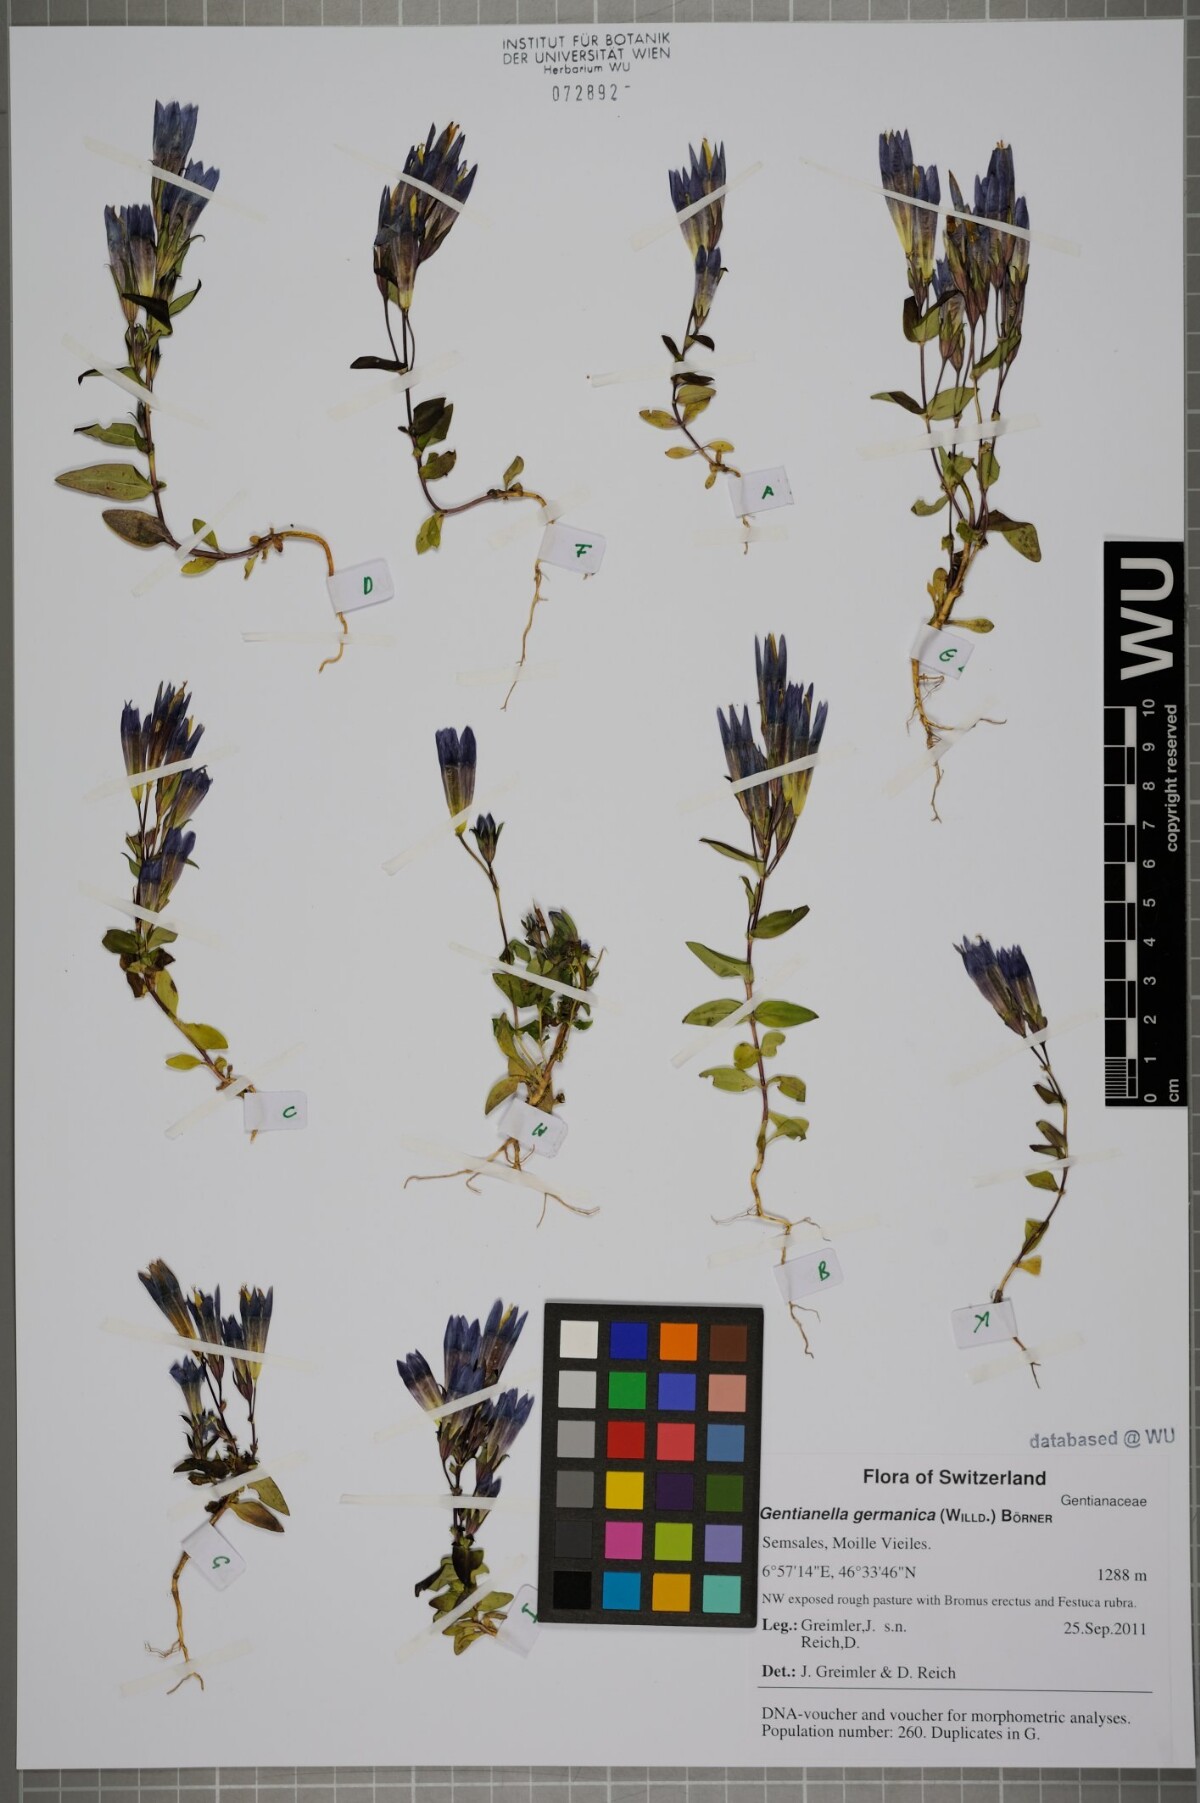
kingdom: Plantae
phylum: Tracheophyta
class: Magnoliopsida
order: Gentianales
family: Gentianaceae
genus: Gentianella
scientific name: Gentianella germanica
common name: Chiltern-gentian
